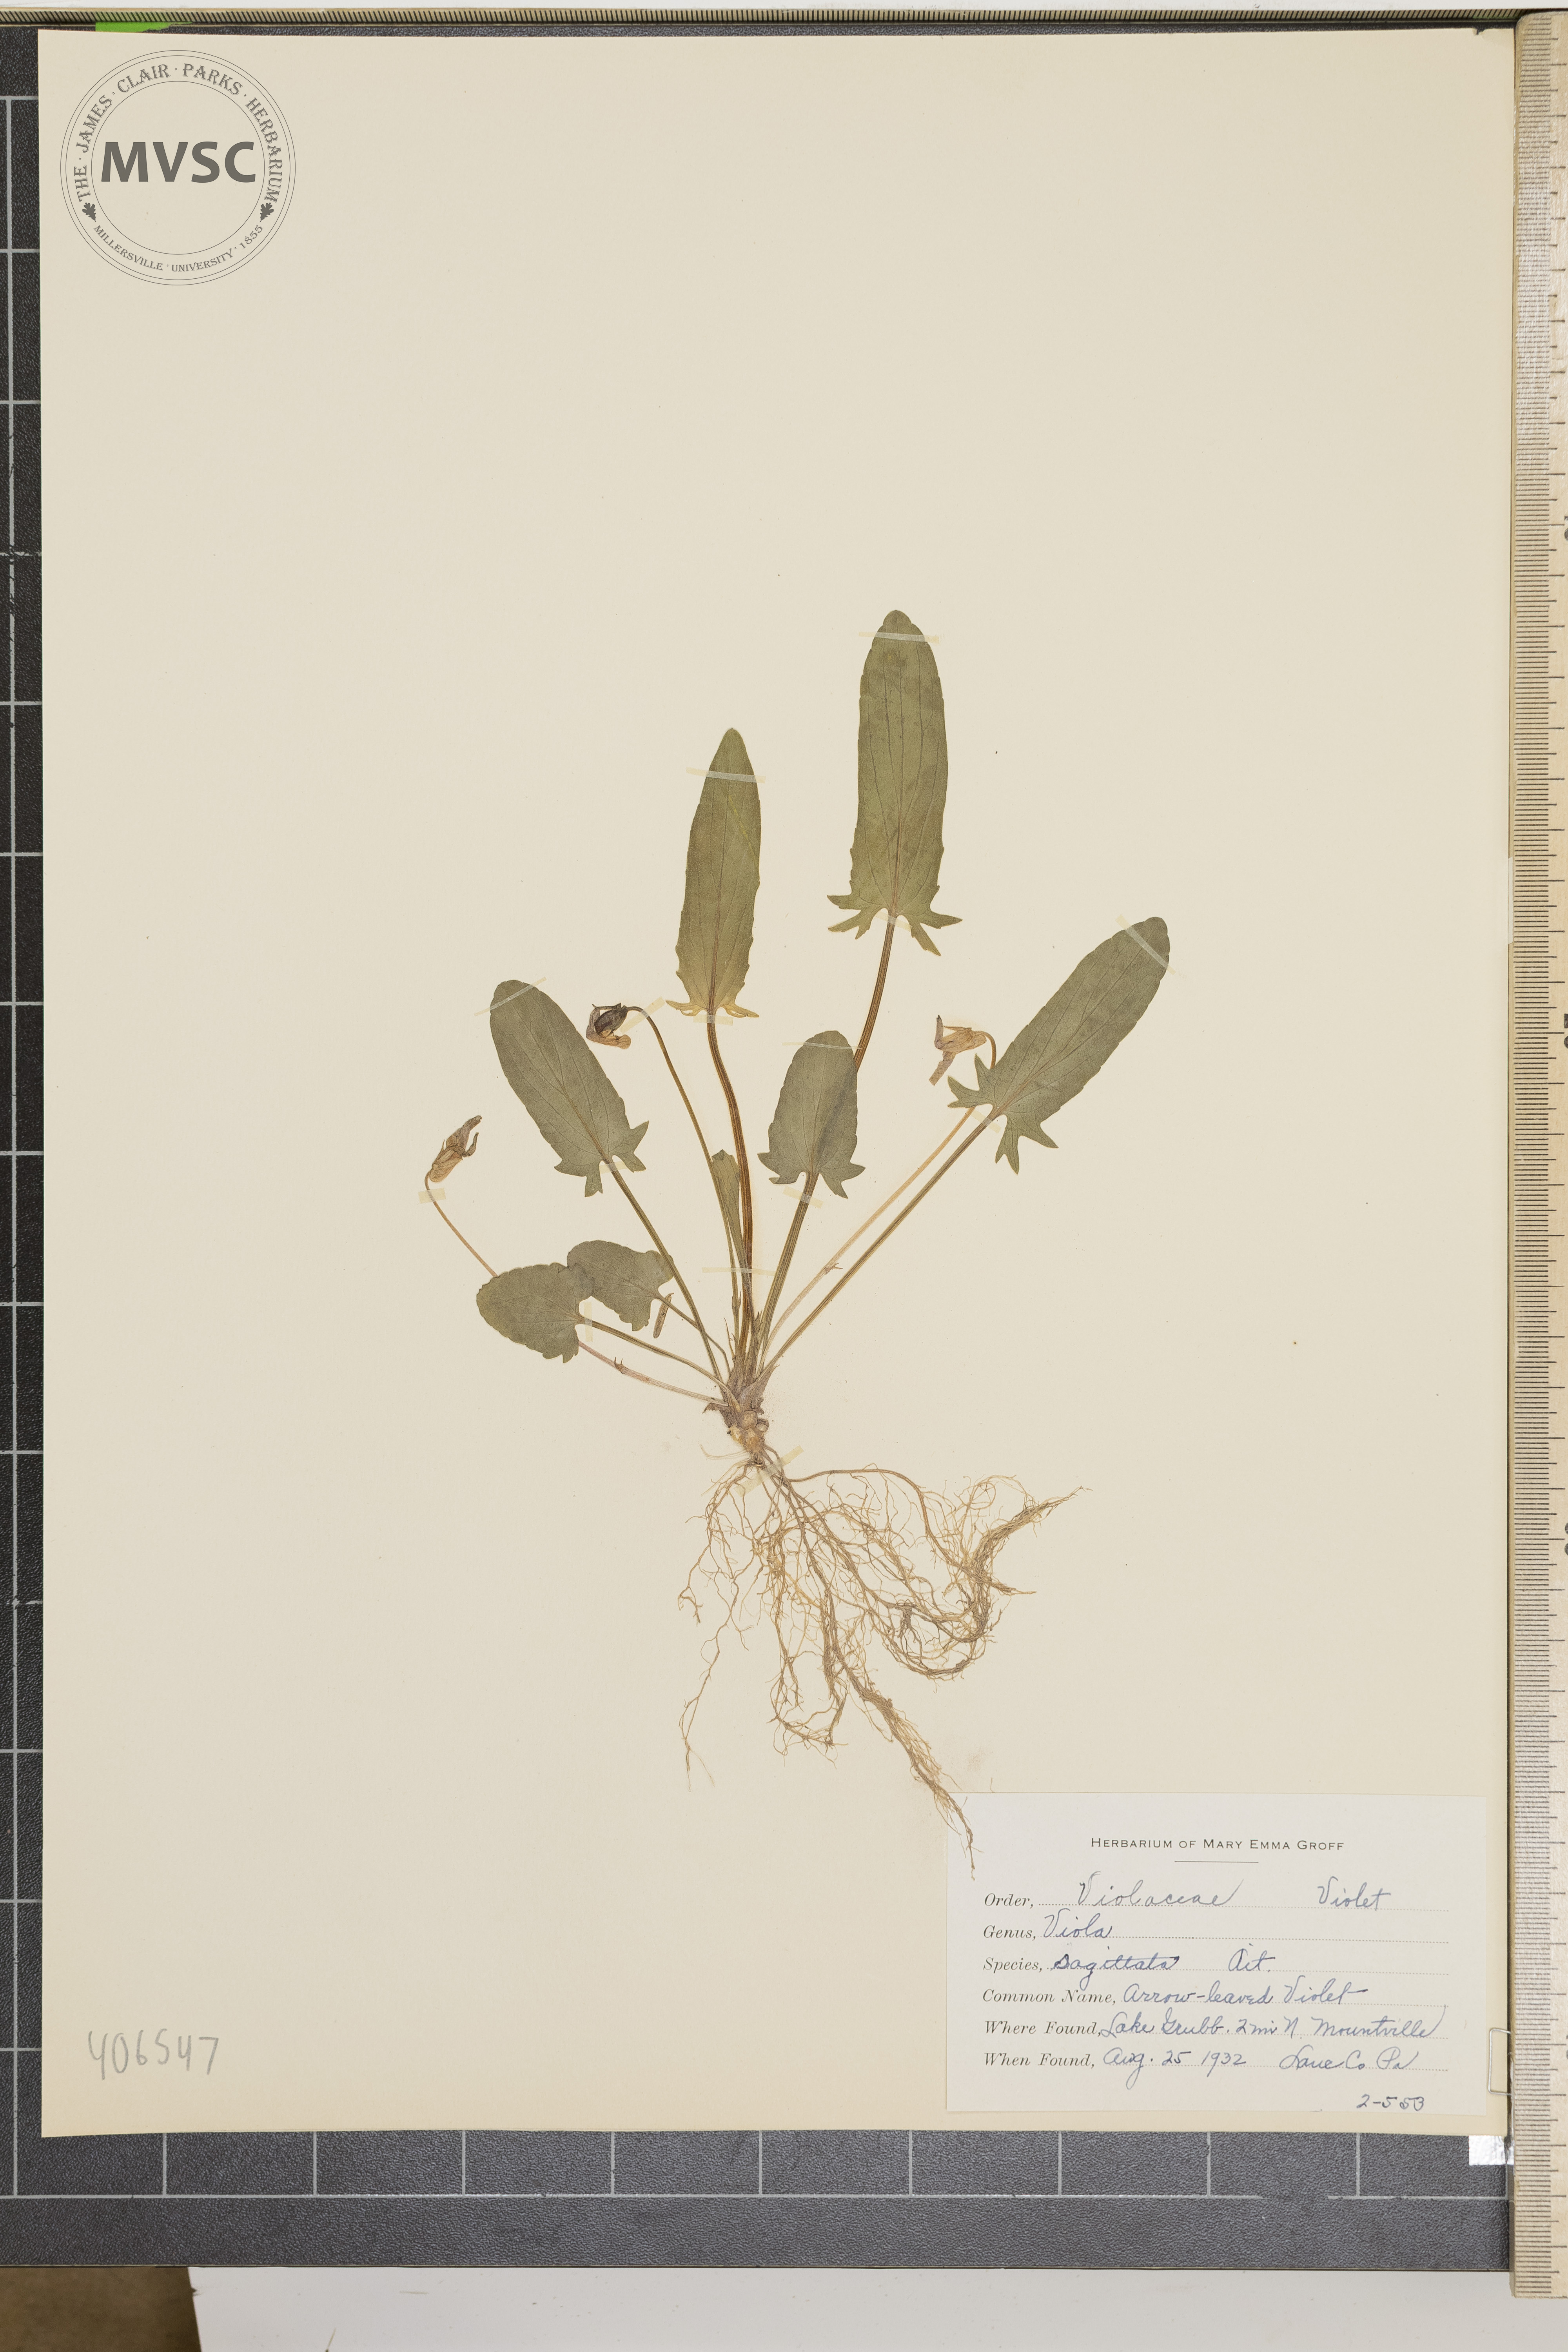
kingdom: Plantae
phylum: Tracheophyta
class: Magnoliopsida
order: Malpighiales
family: Violaceae
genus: Viola
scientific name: Viola sagittata
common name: arrow-leaved violet
